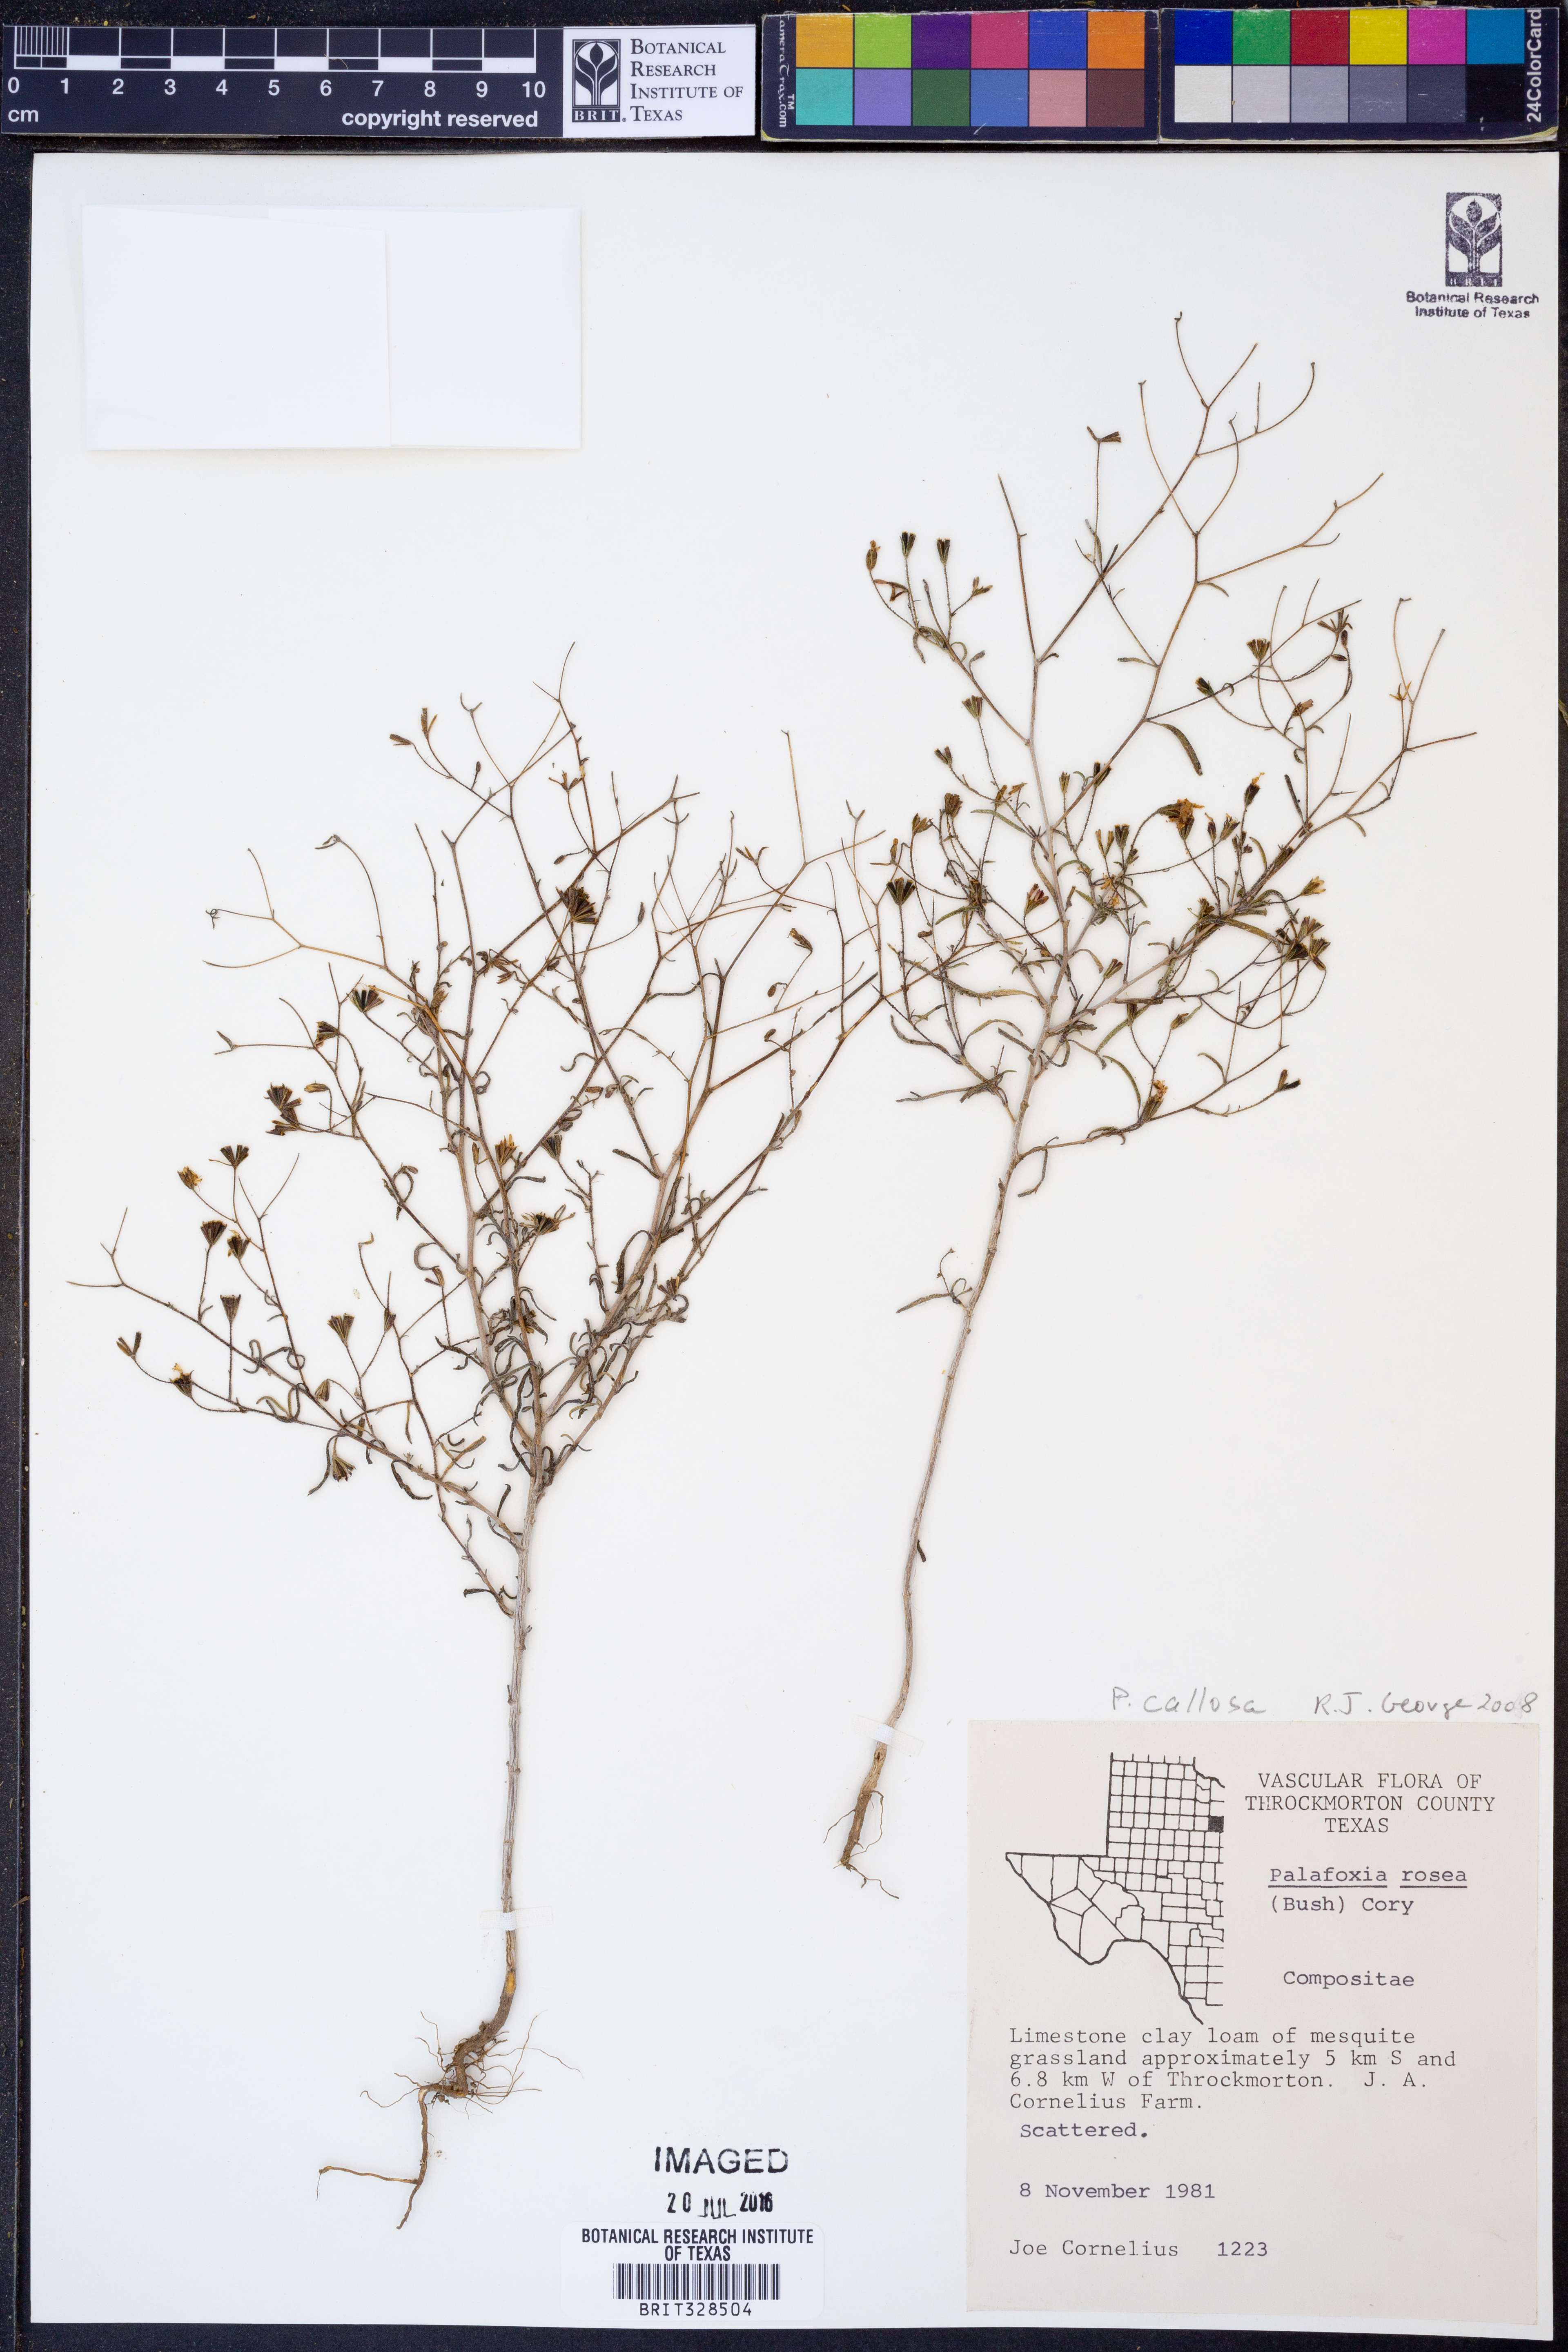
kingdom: Plantae
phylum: Tracheophyta
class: Magnoliopsida
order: Asterales
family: Asteraceae
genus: Palafoxia
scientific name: Palafoxia callosa
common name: Small palafox
